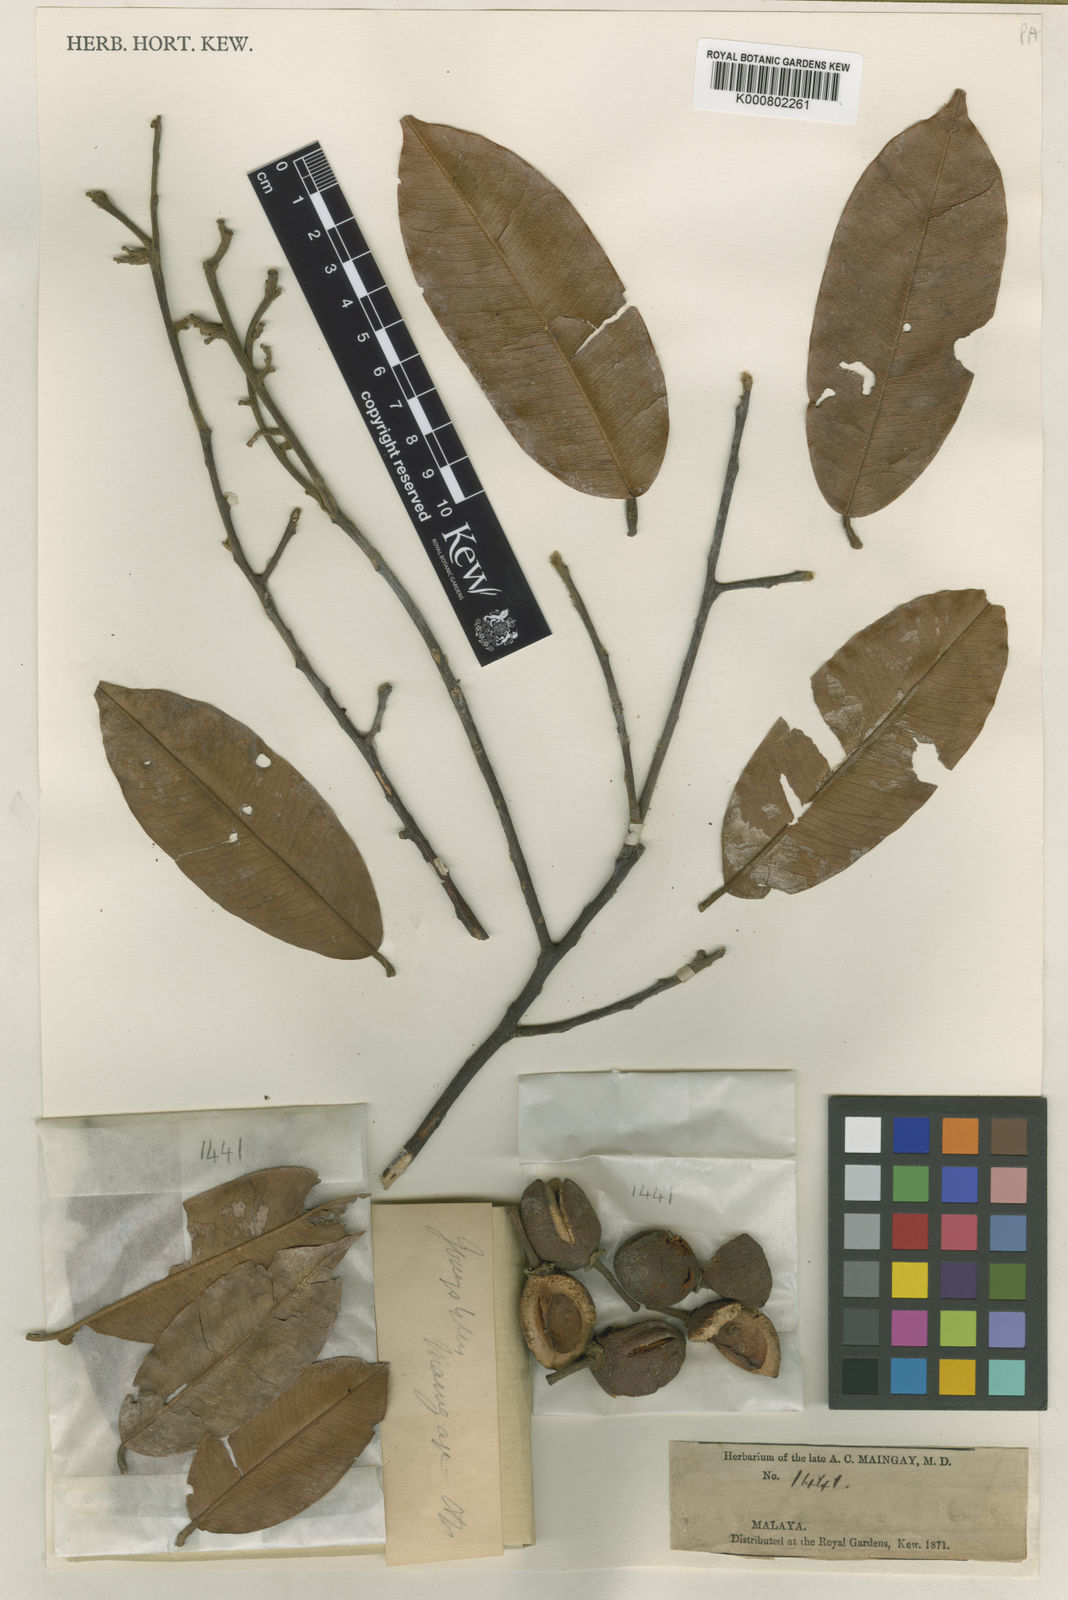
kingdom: Plantae
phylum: Tracheophyta
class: Magnoliopsida
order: Malvales
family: Thymelaeaceae
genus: Gonystylus
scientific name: Gonystylus maingayi
